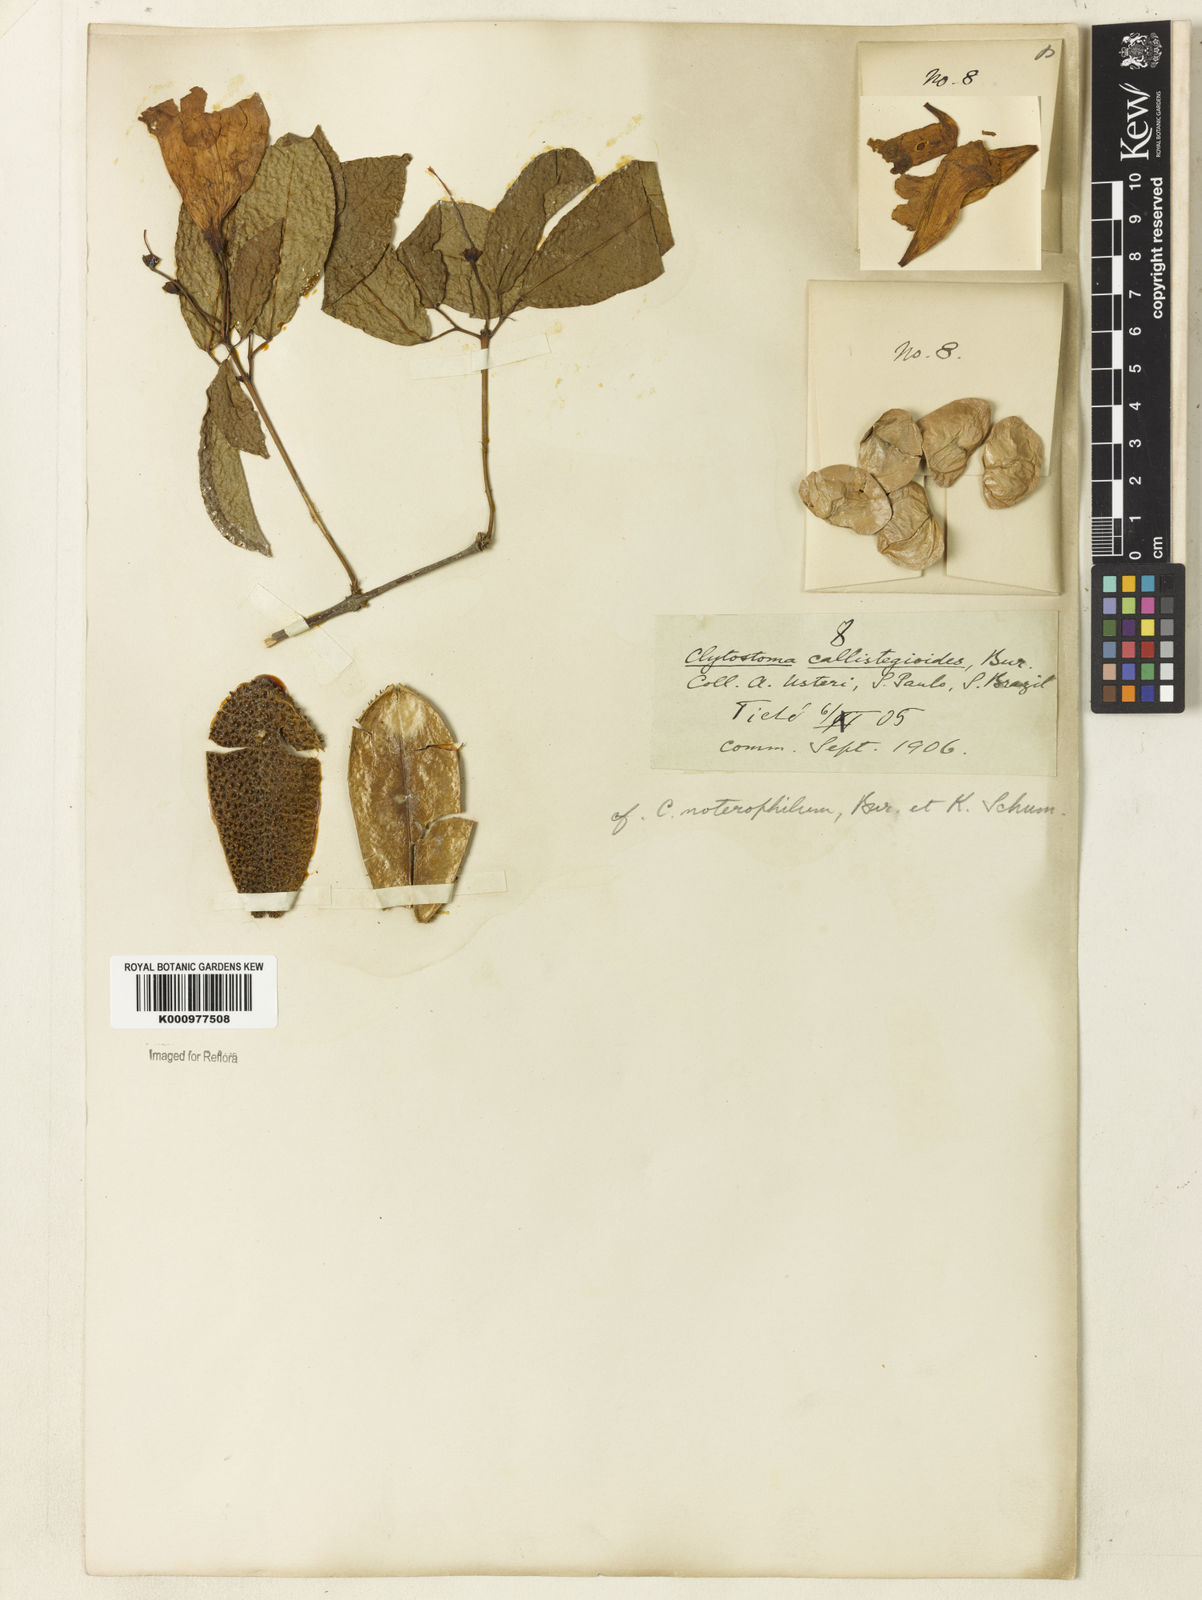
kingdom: Plantae
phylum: Tracheophyta
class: Magnoliopsida
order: Lamiales
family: Bignoniaceae
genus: Bignonia
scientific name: Bignonia binata
